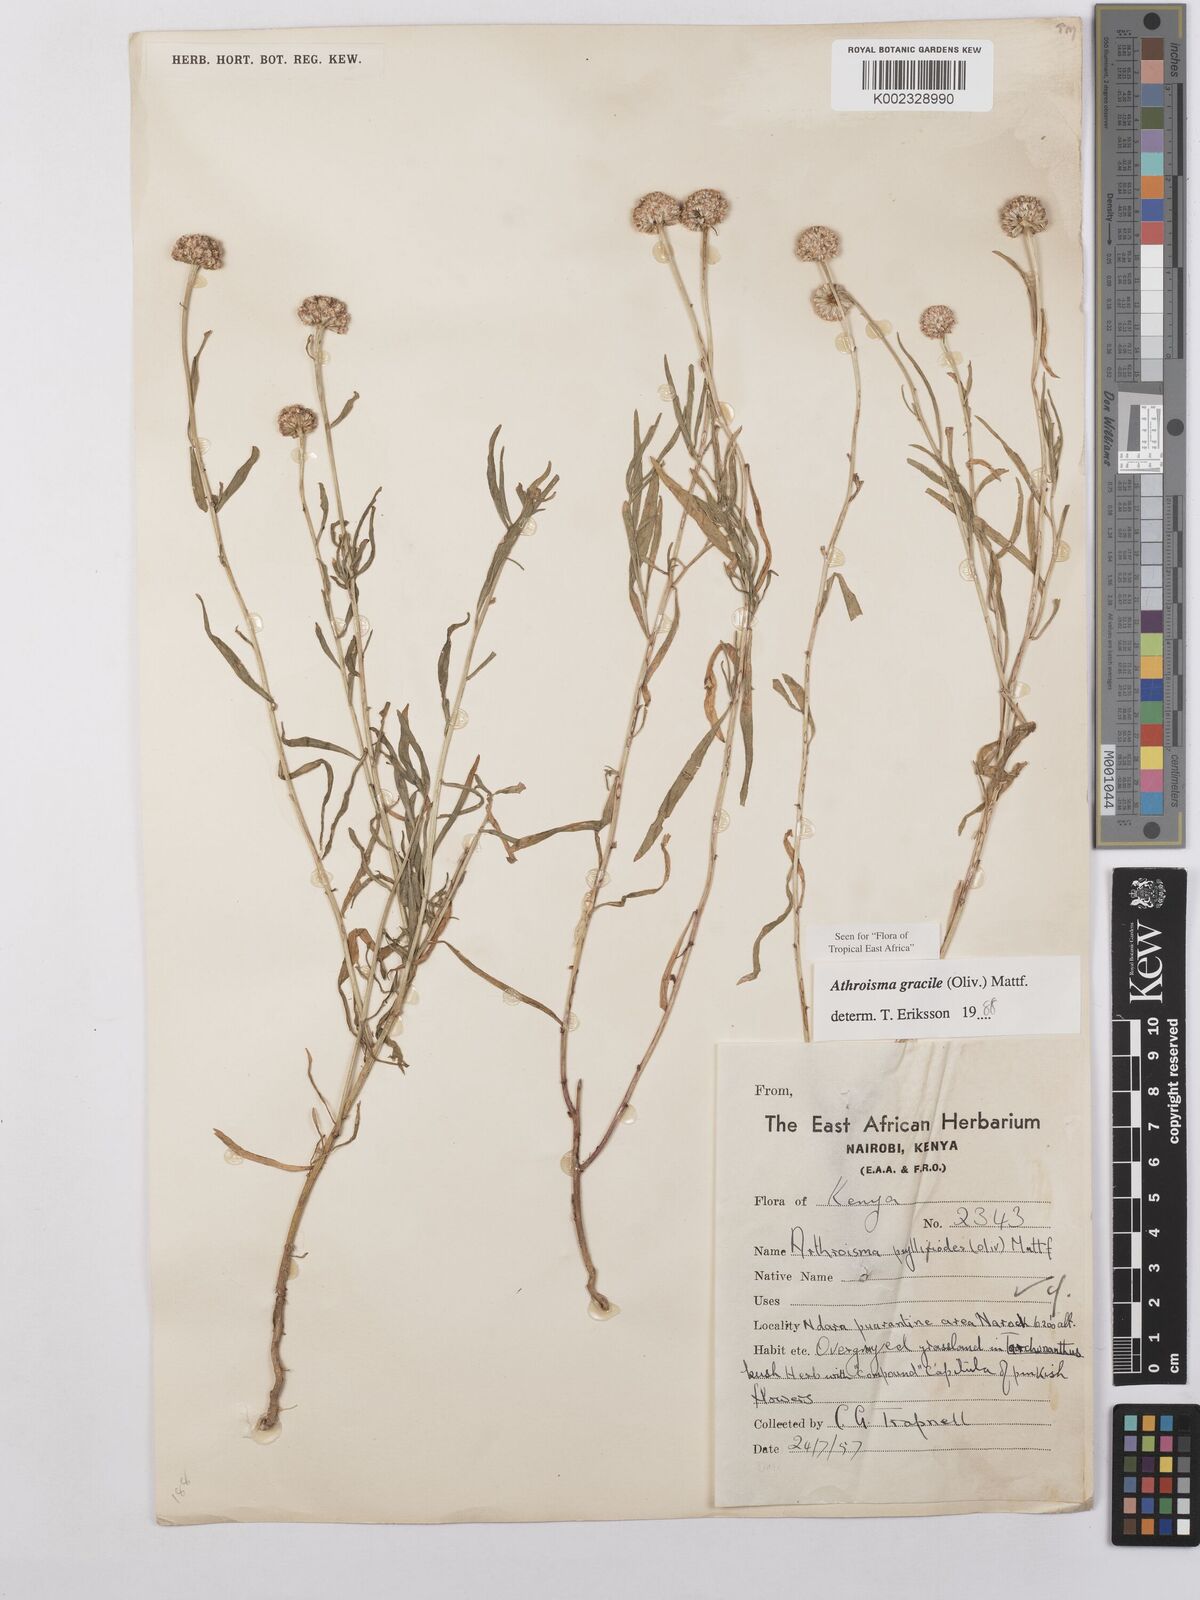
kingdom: Plantae
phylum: Tracheophyta
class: Magnoliopsida
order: Asterales
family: Asteraceae
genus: Athroisma
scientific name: Athroisma gracile
